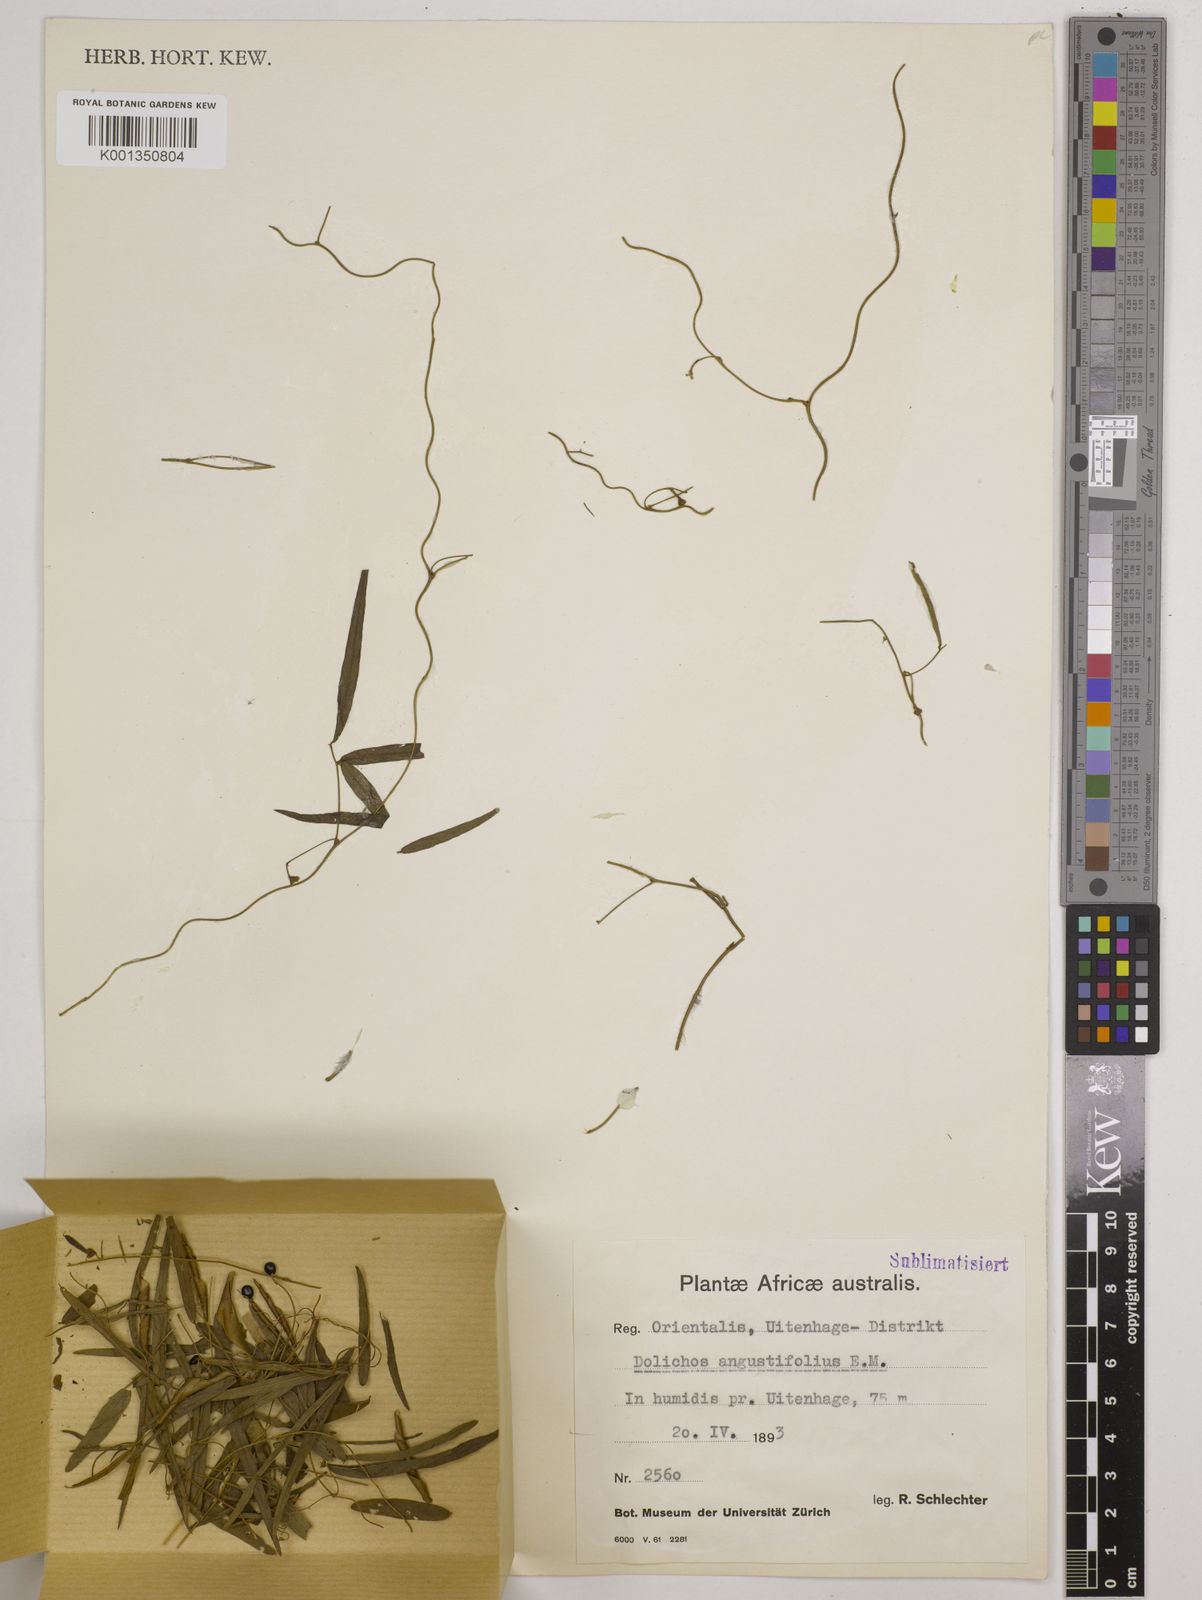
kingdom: Plantae
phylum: Tracheophyta
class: Magnoliopsida
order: Fabales
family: Fabaceae
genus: Dolichos
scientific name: Dolichos
